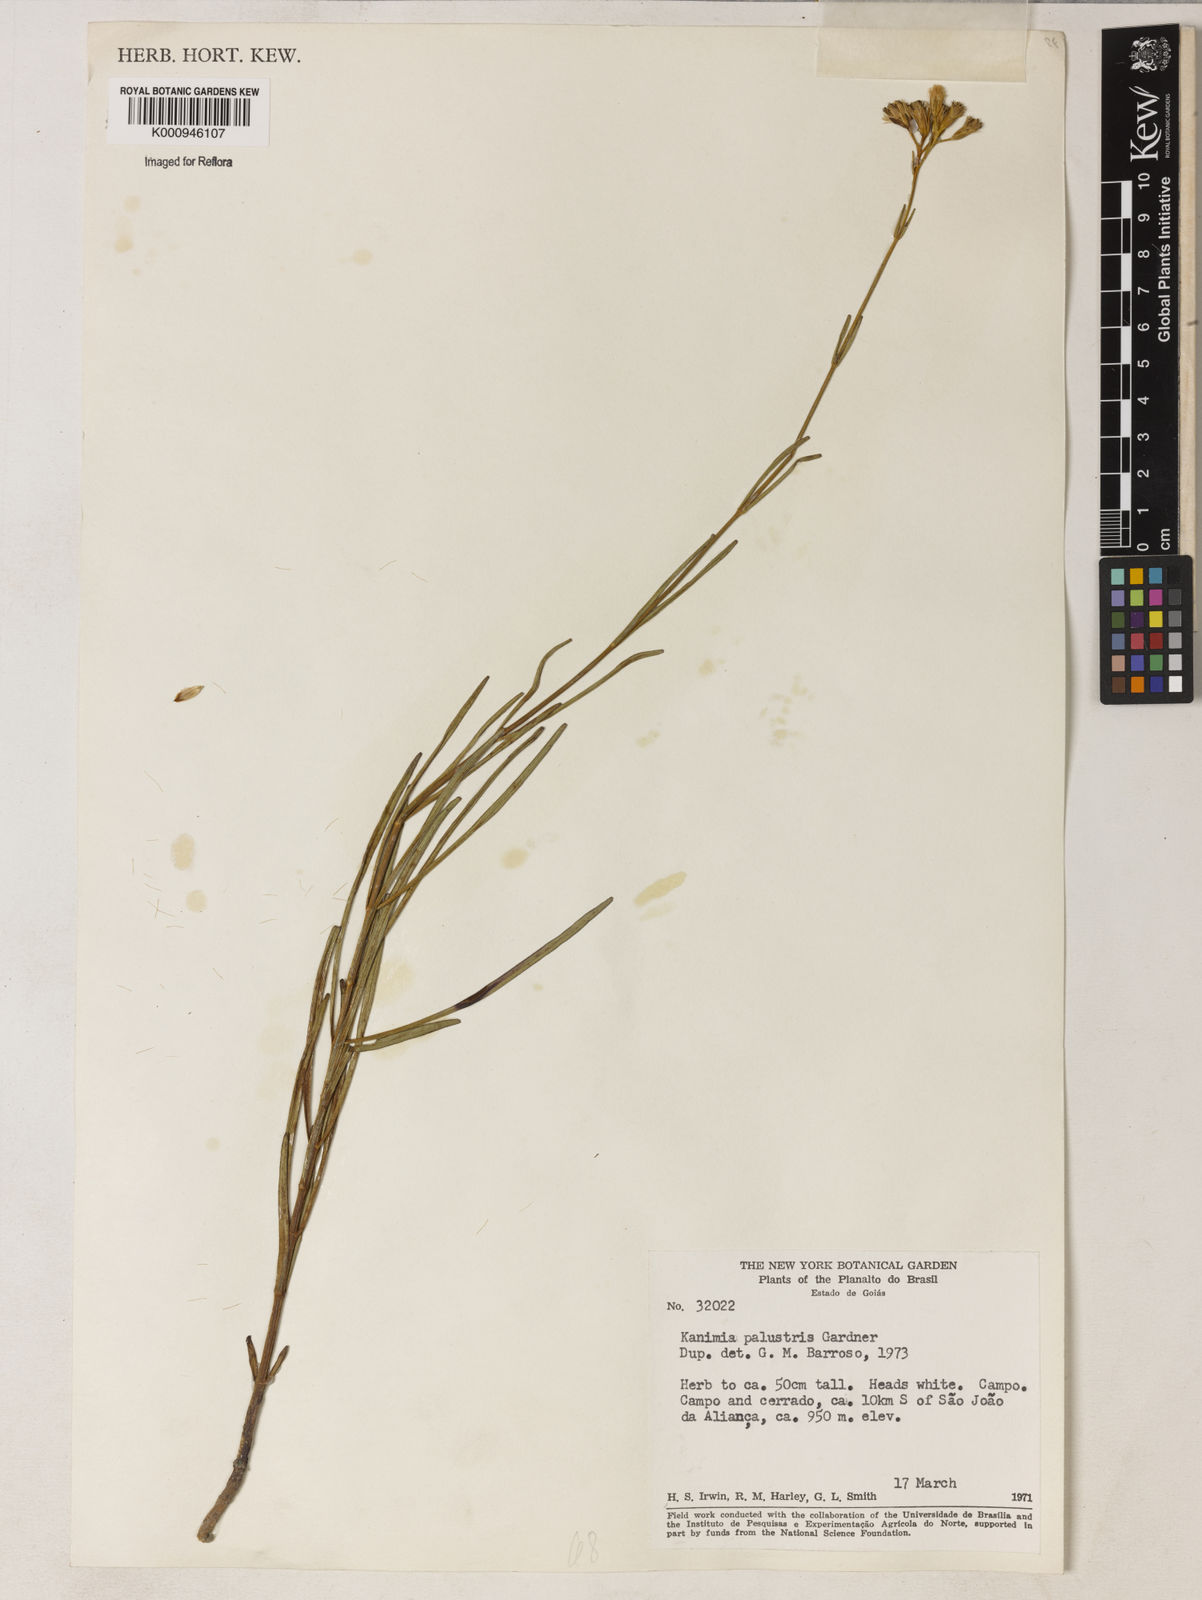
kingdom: Plantae
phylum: Tracheophyta
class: Magnoliopsida
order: Asterales
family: Asteraceae
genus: Mikania
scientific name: Mikania palustris
